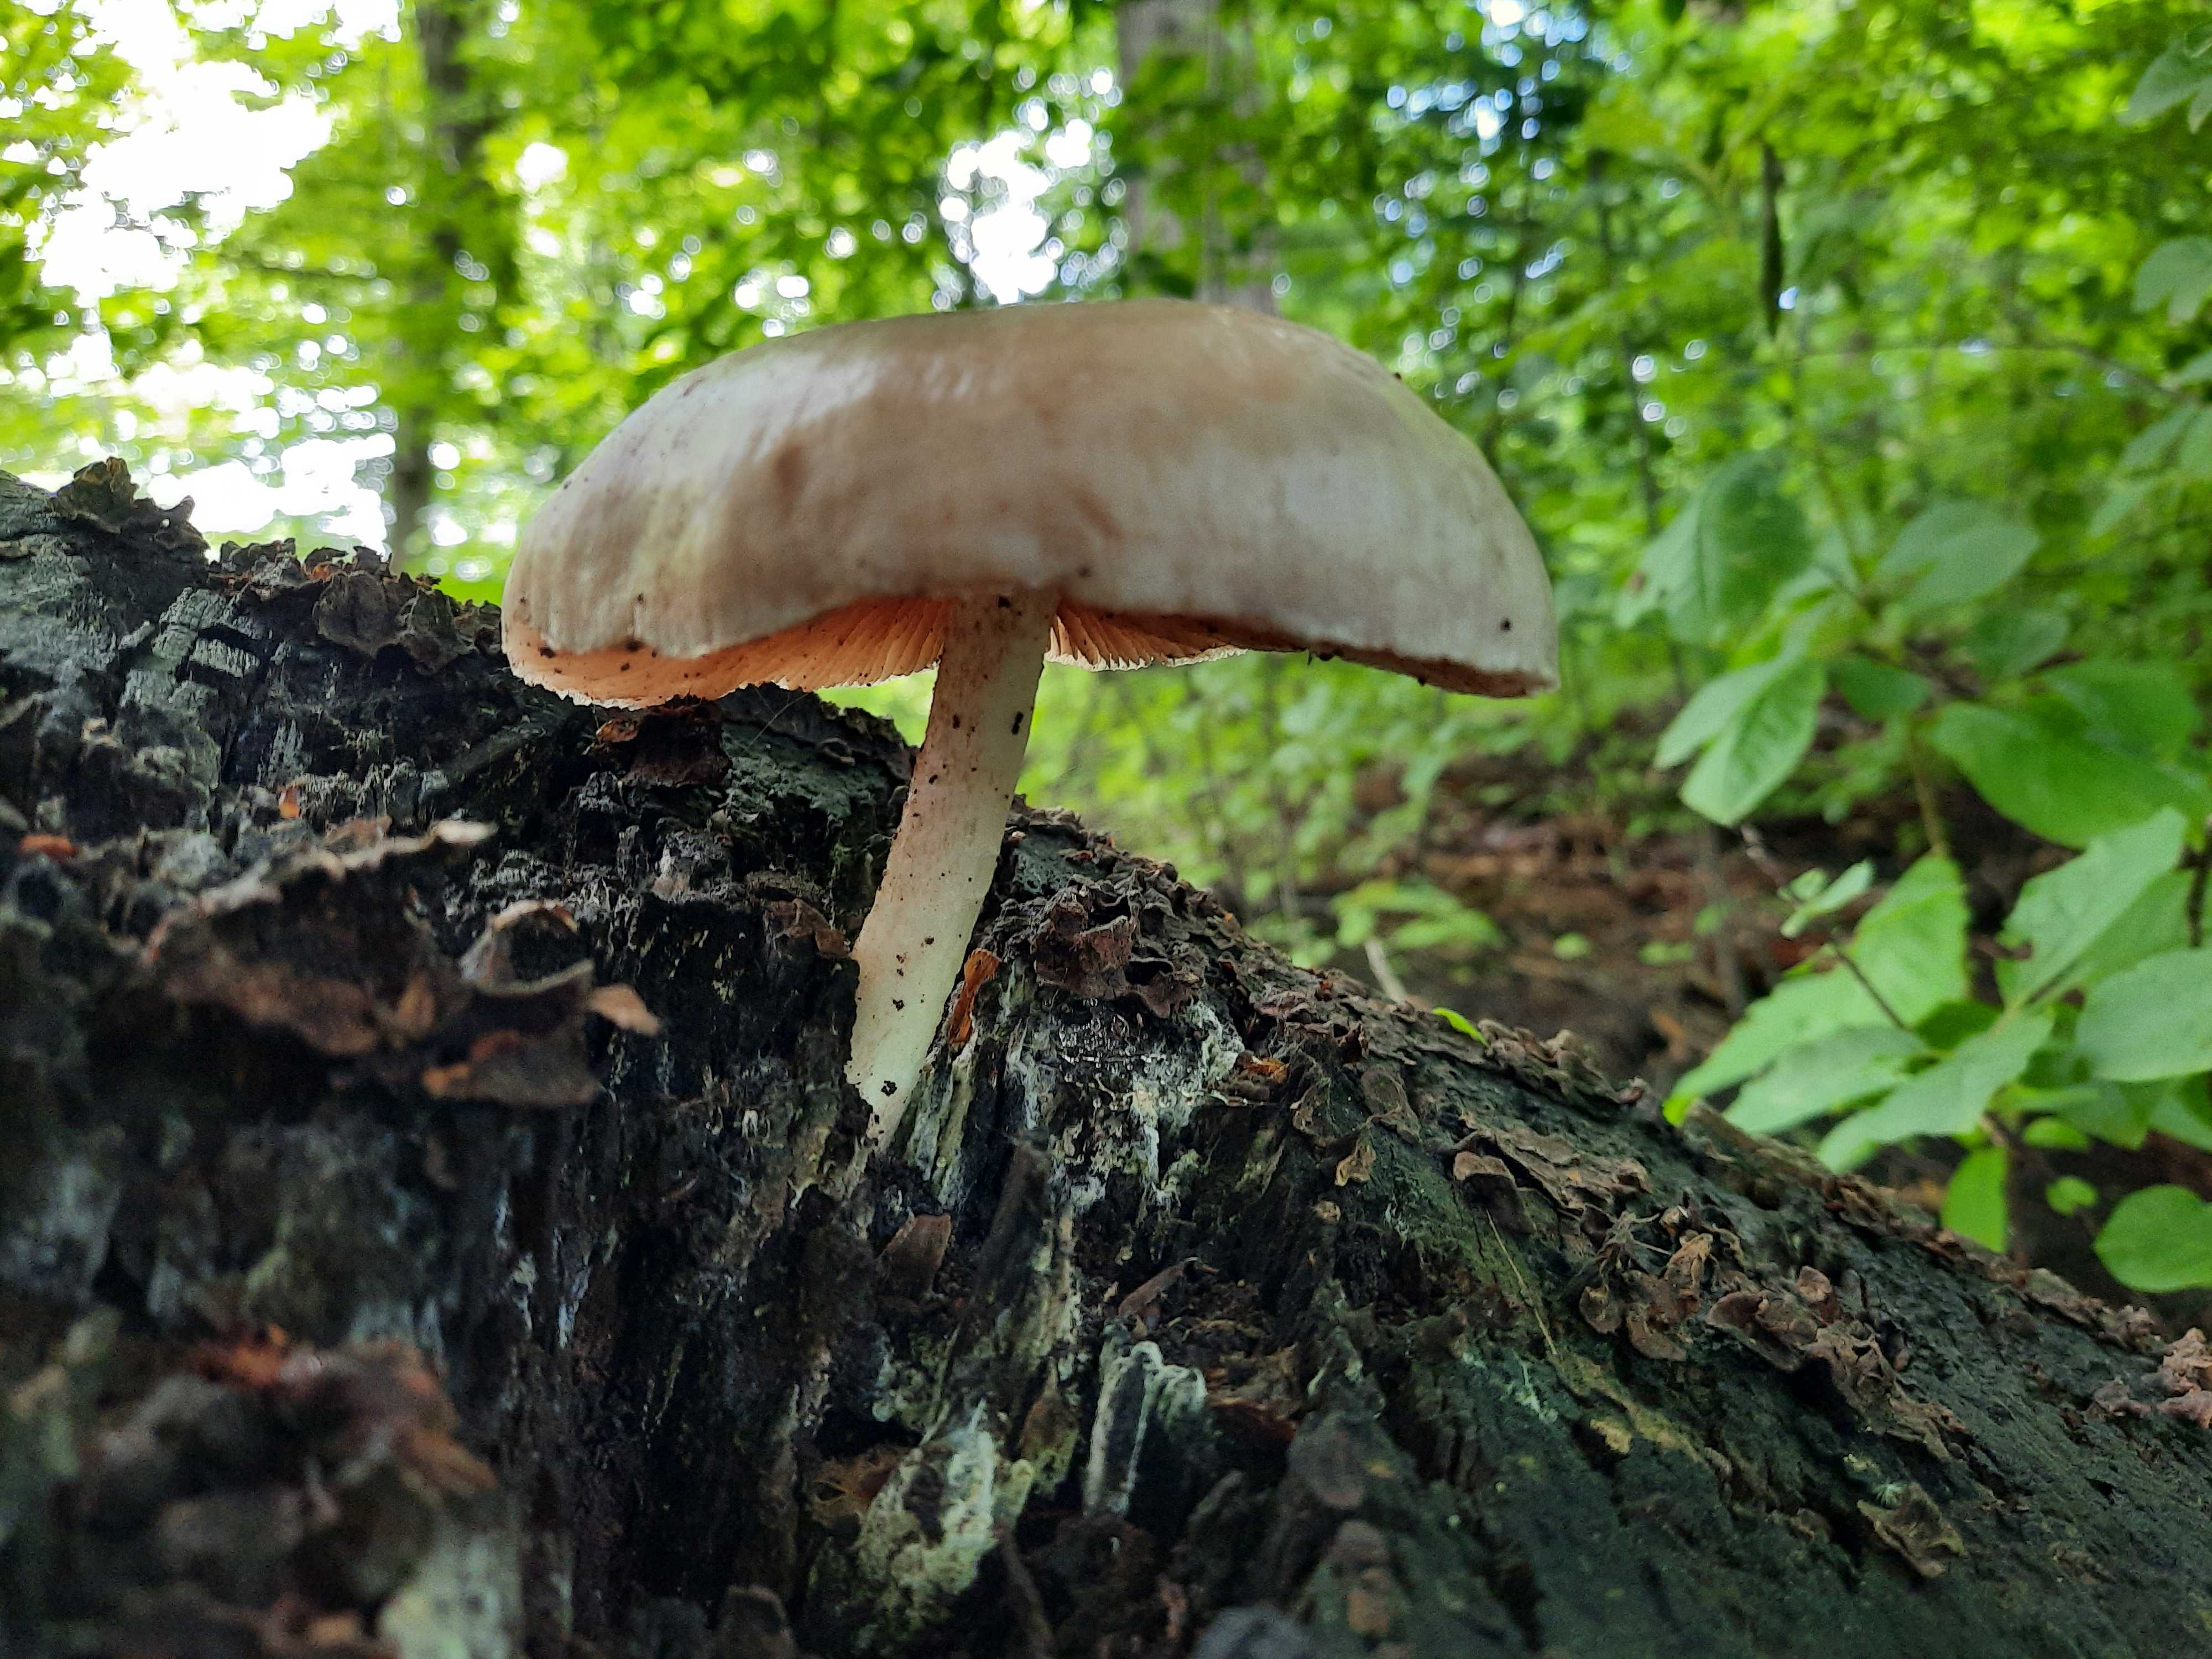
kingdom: Fungi
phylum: Basidiomycota
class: Agaricomycetes
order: Agaricales
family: Pluteaceae
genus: Pluteus
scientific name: Pluteus cervinus
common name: sodfarvet skærmhat
